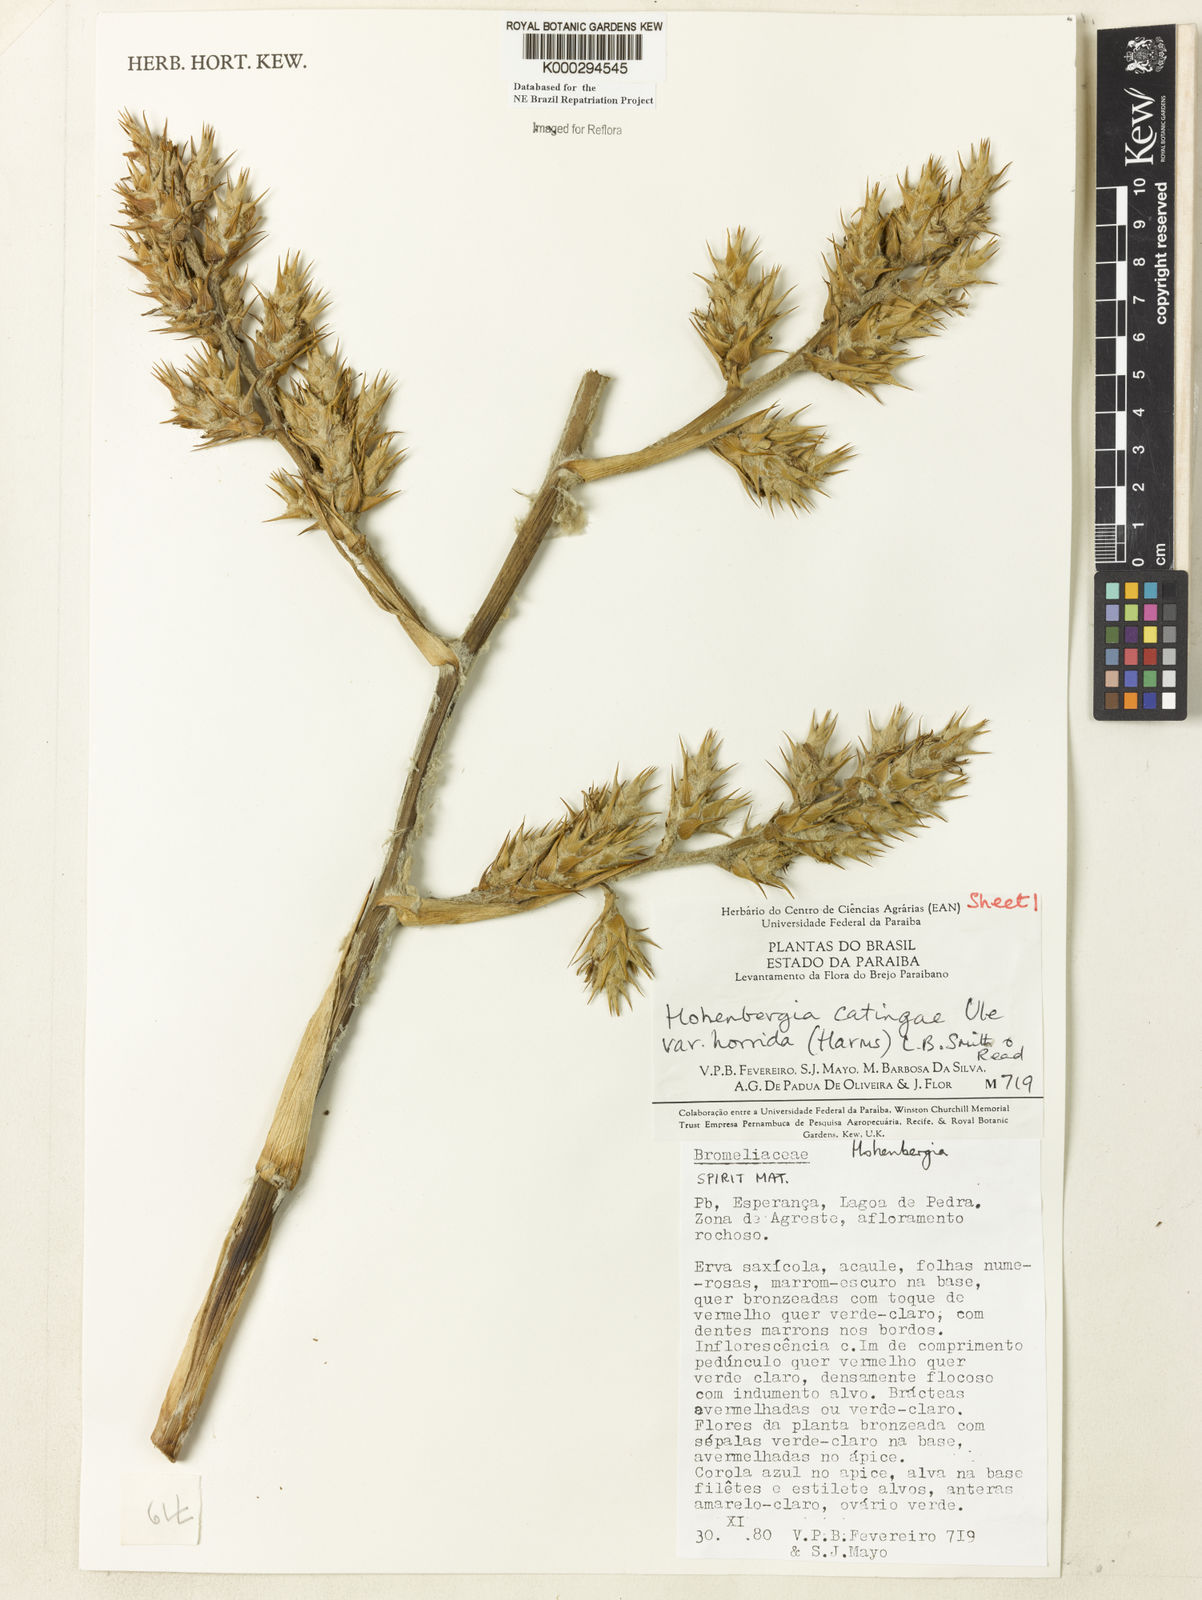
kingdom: Plantae
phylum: Tracheophyta
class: Liliopsida
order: Poales
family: Bromeliaceae
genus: Hohenbergia
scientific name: Hohenbergia horrida
